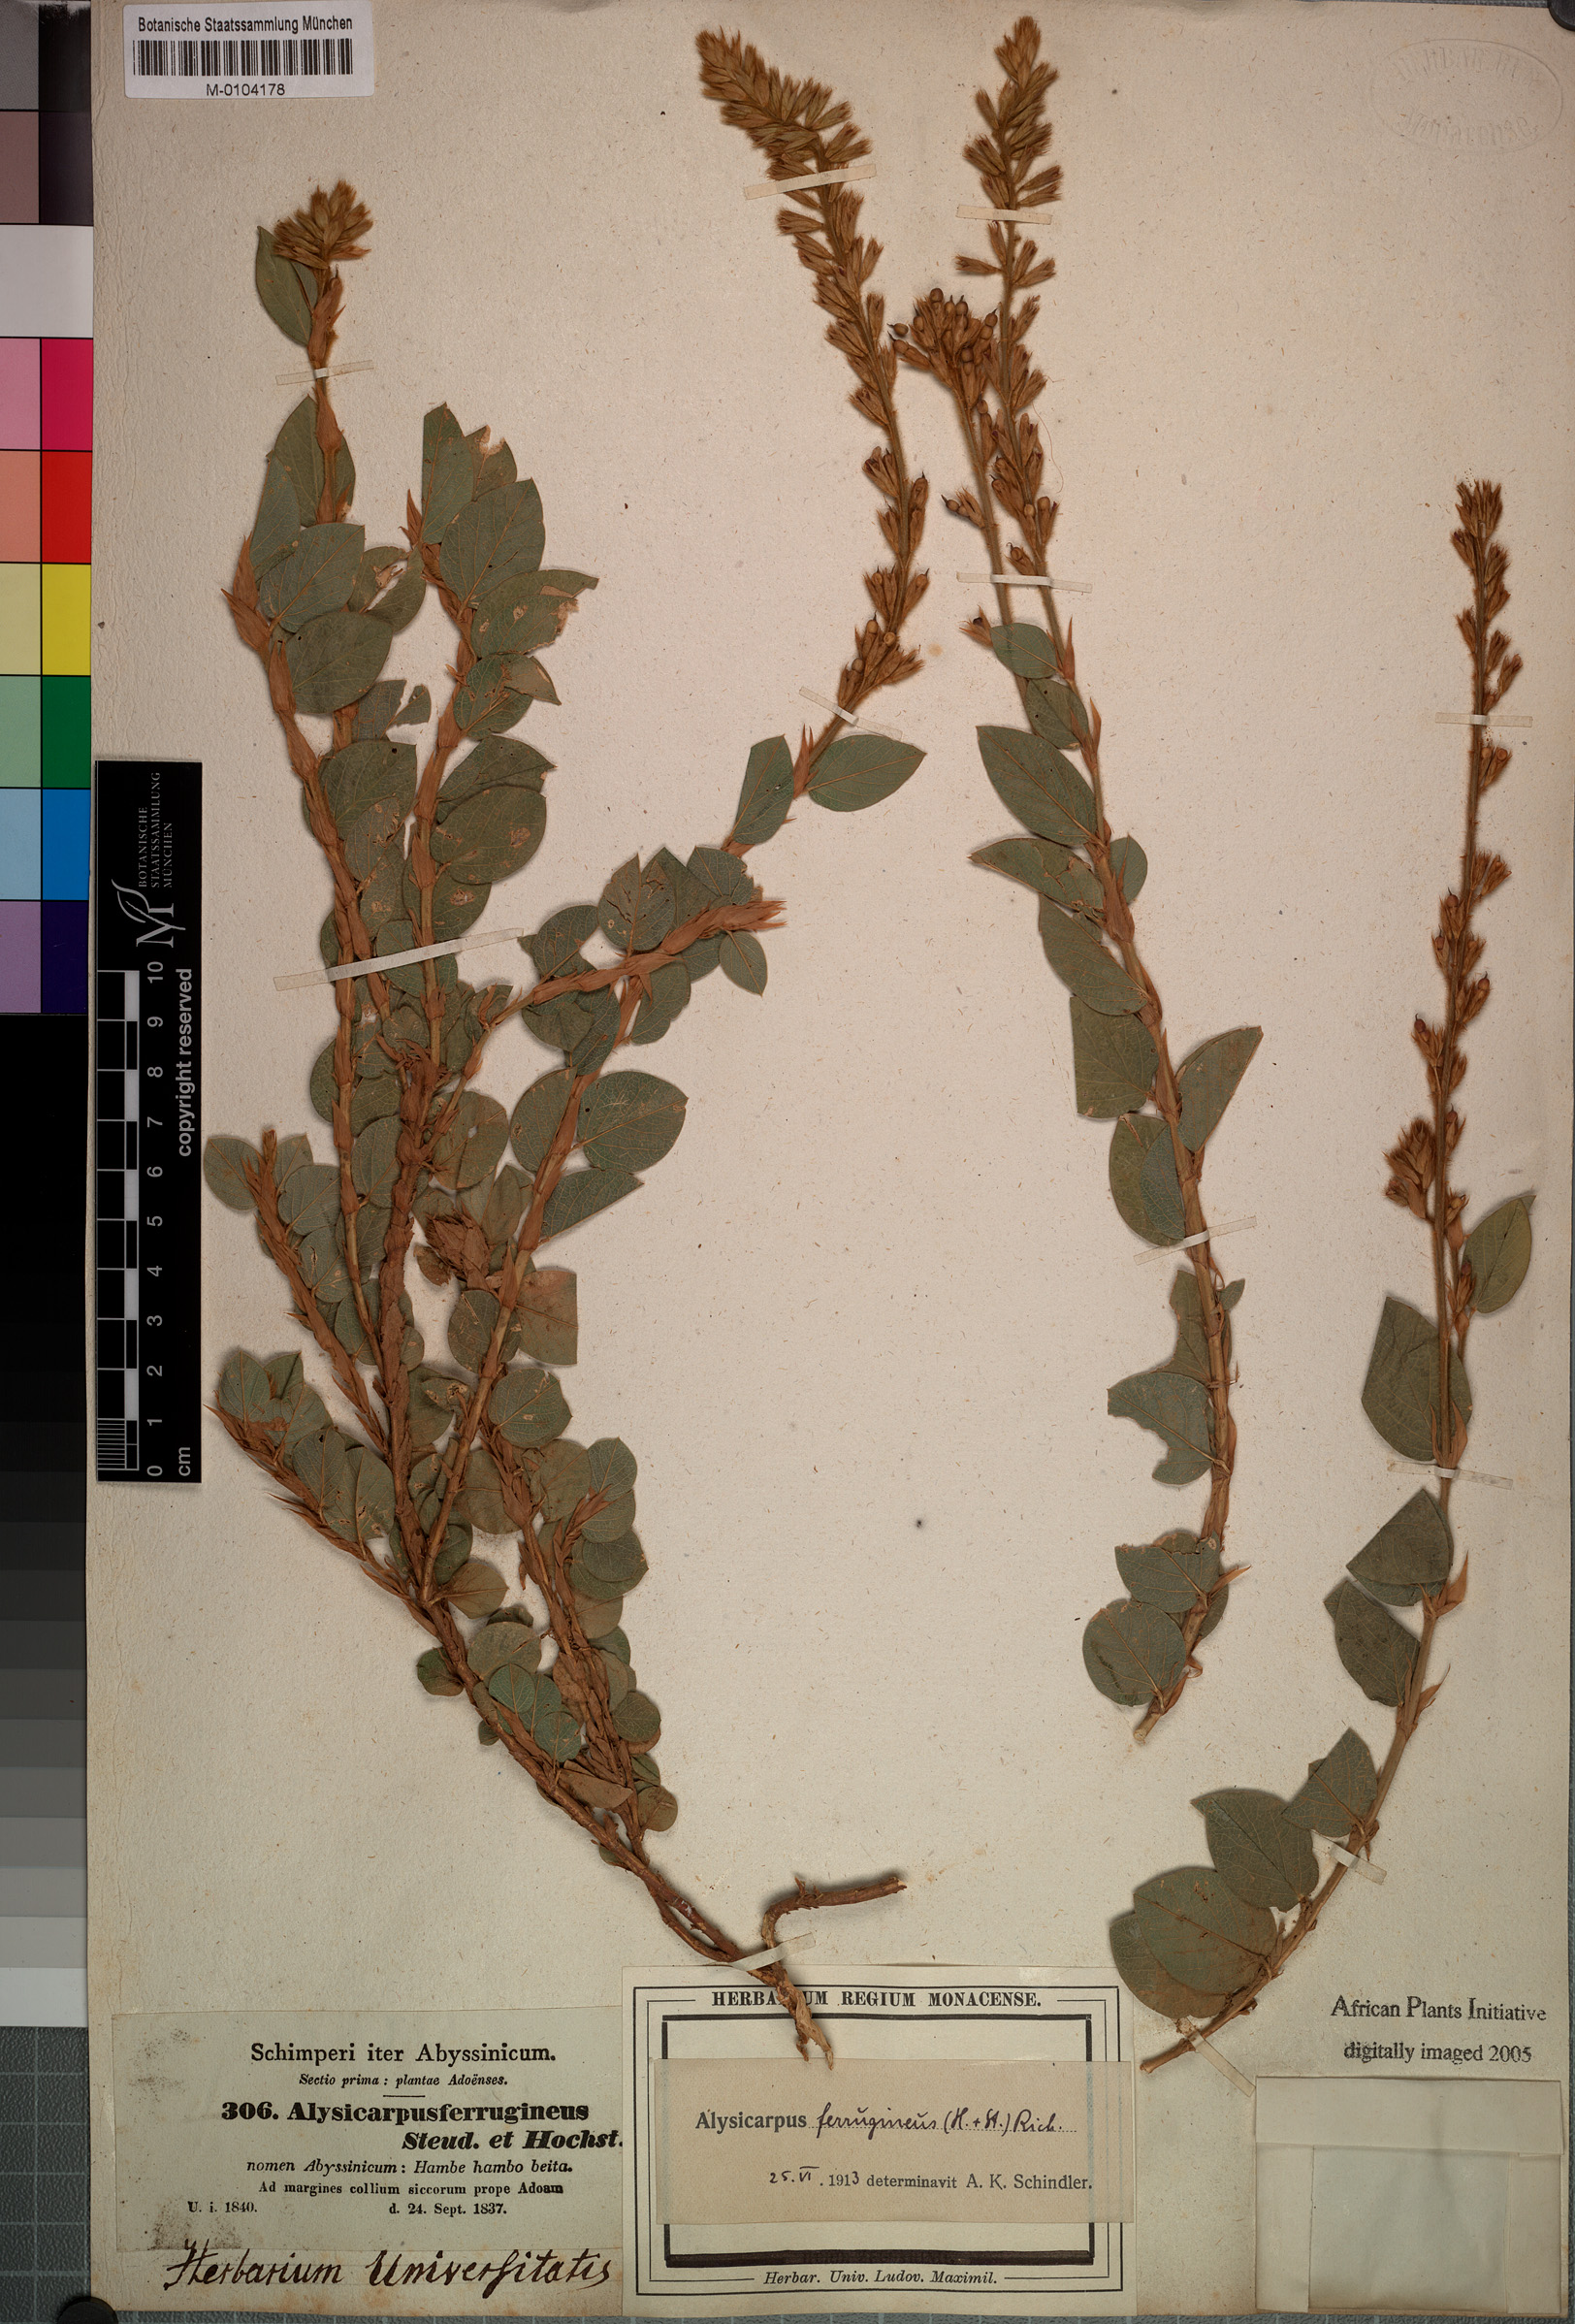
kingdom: Plantae
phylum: Tracheophyta
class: Magnoliopsida
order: Fabales
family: Fabaceae
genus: Alysicarpus
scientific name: Alysicarpus ferrugineus
